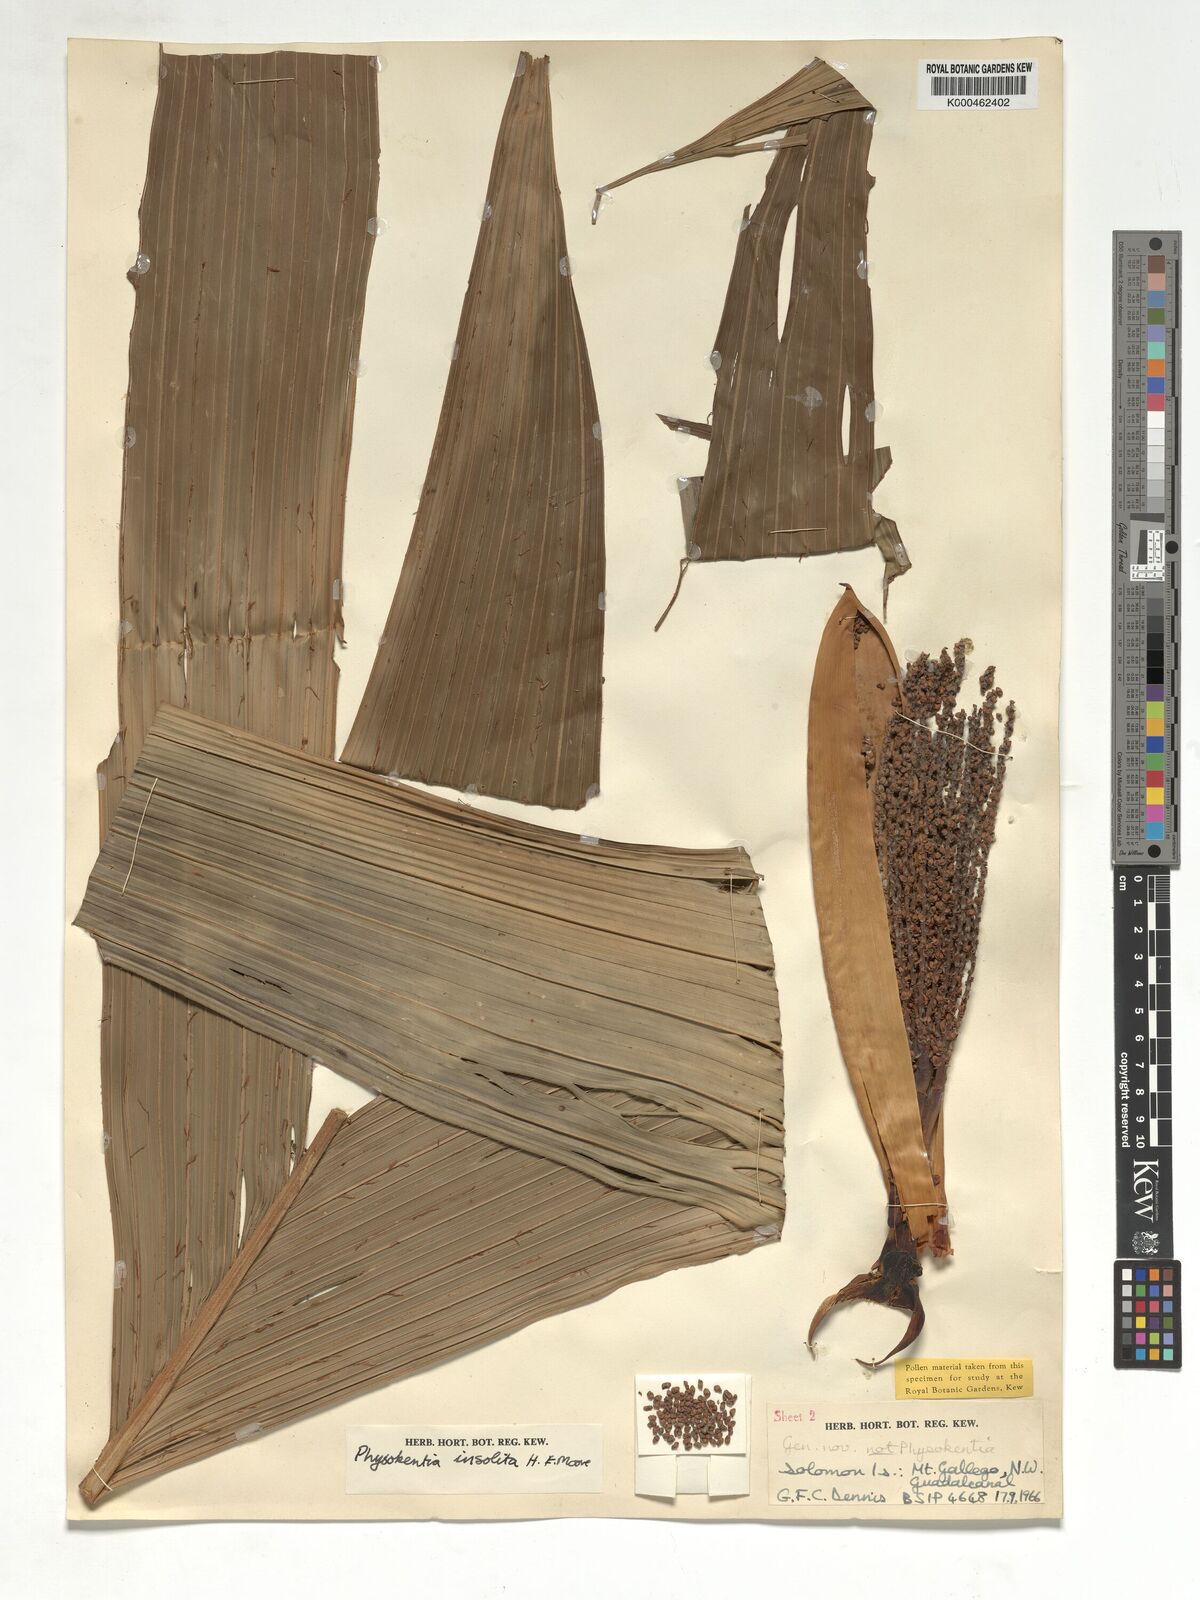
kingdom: Plantae
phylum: Tracheophyta
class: Liliopsida
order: Arecales
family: Arecaceae
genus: Physokentia
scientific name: Physokentia insolita
